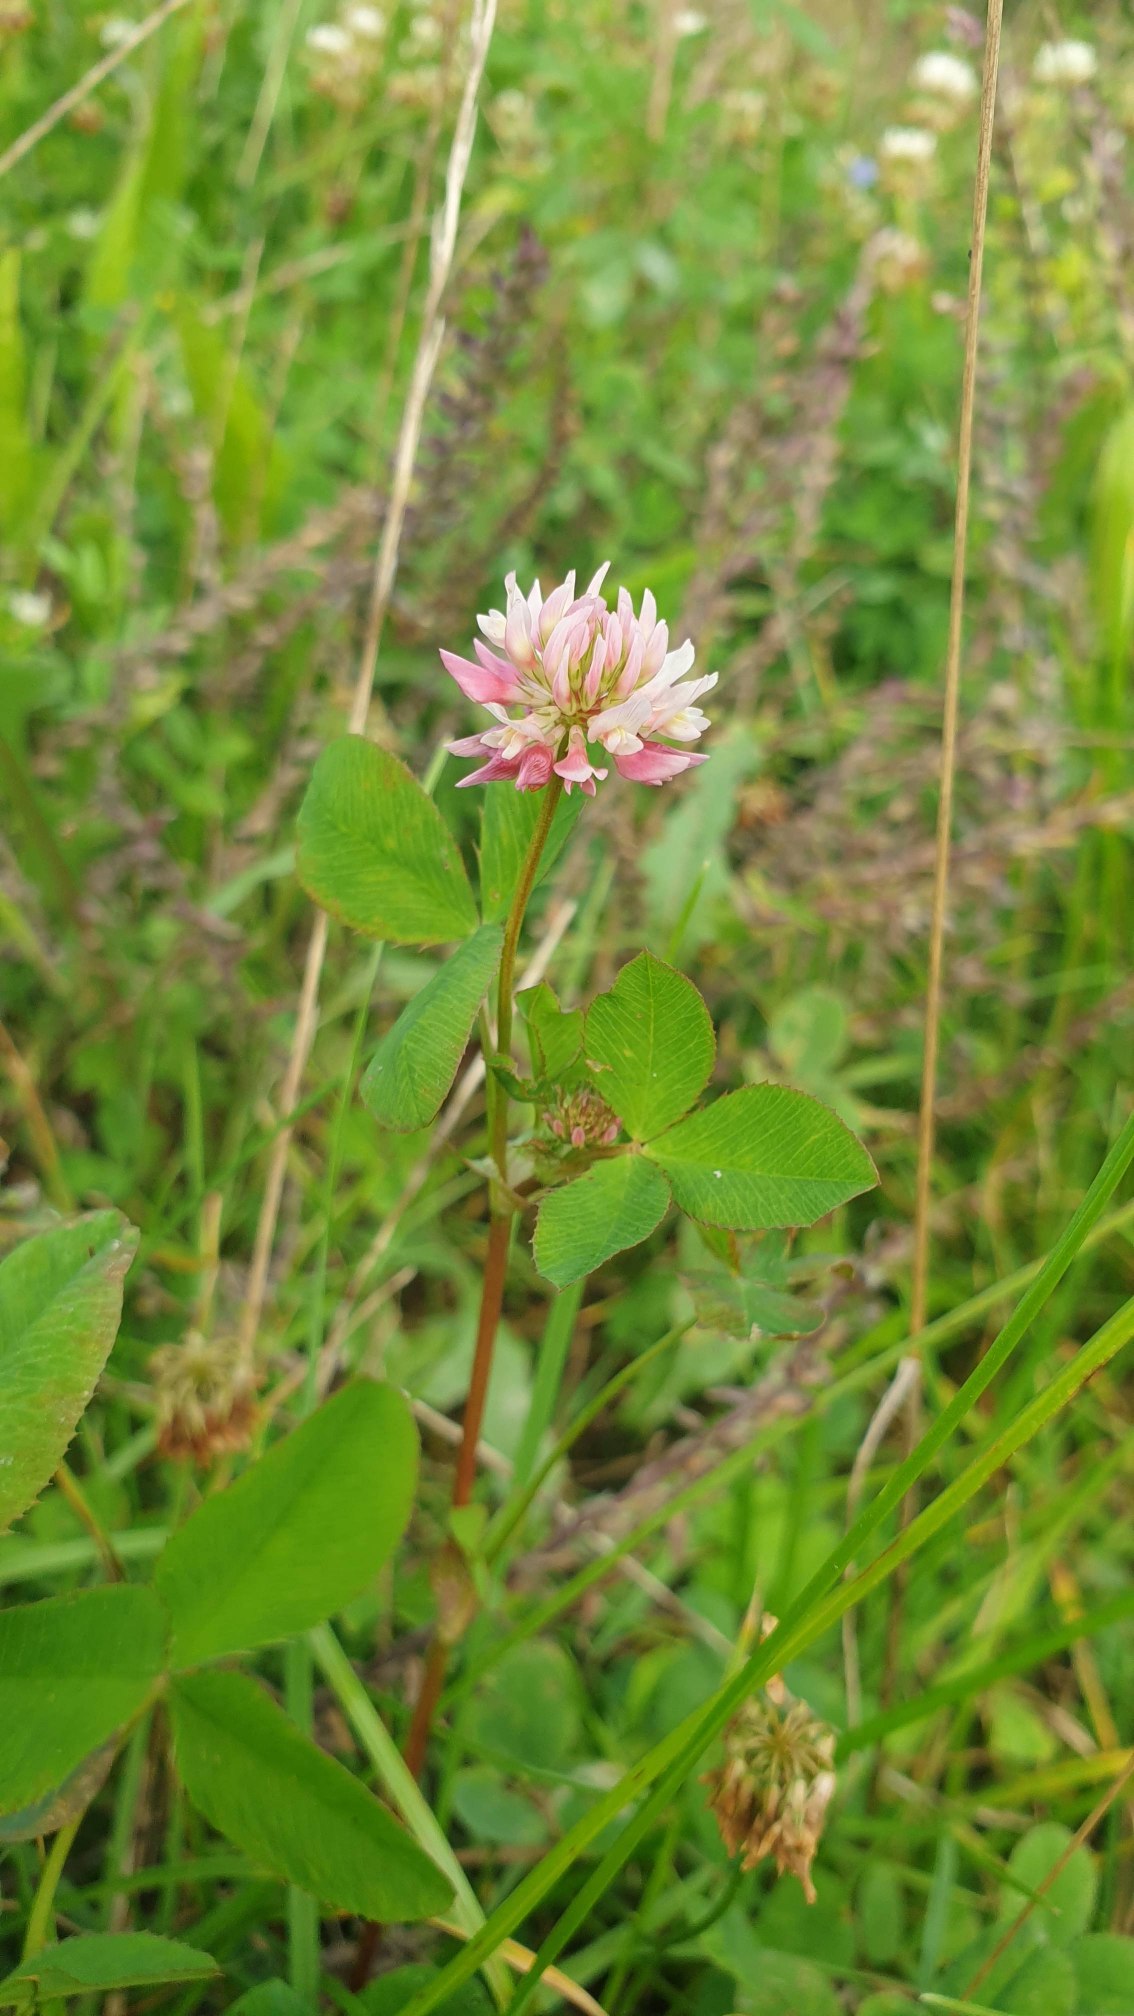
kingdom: Plantae
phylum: Tracheophyta
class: Magnoliopsida
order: Fabales
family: Fabaceae
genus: Trifolium
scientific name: Trifolium hybridum
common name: Alsike-kløver
